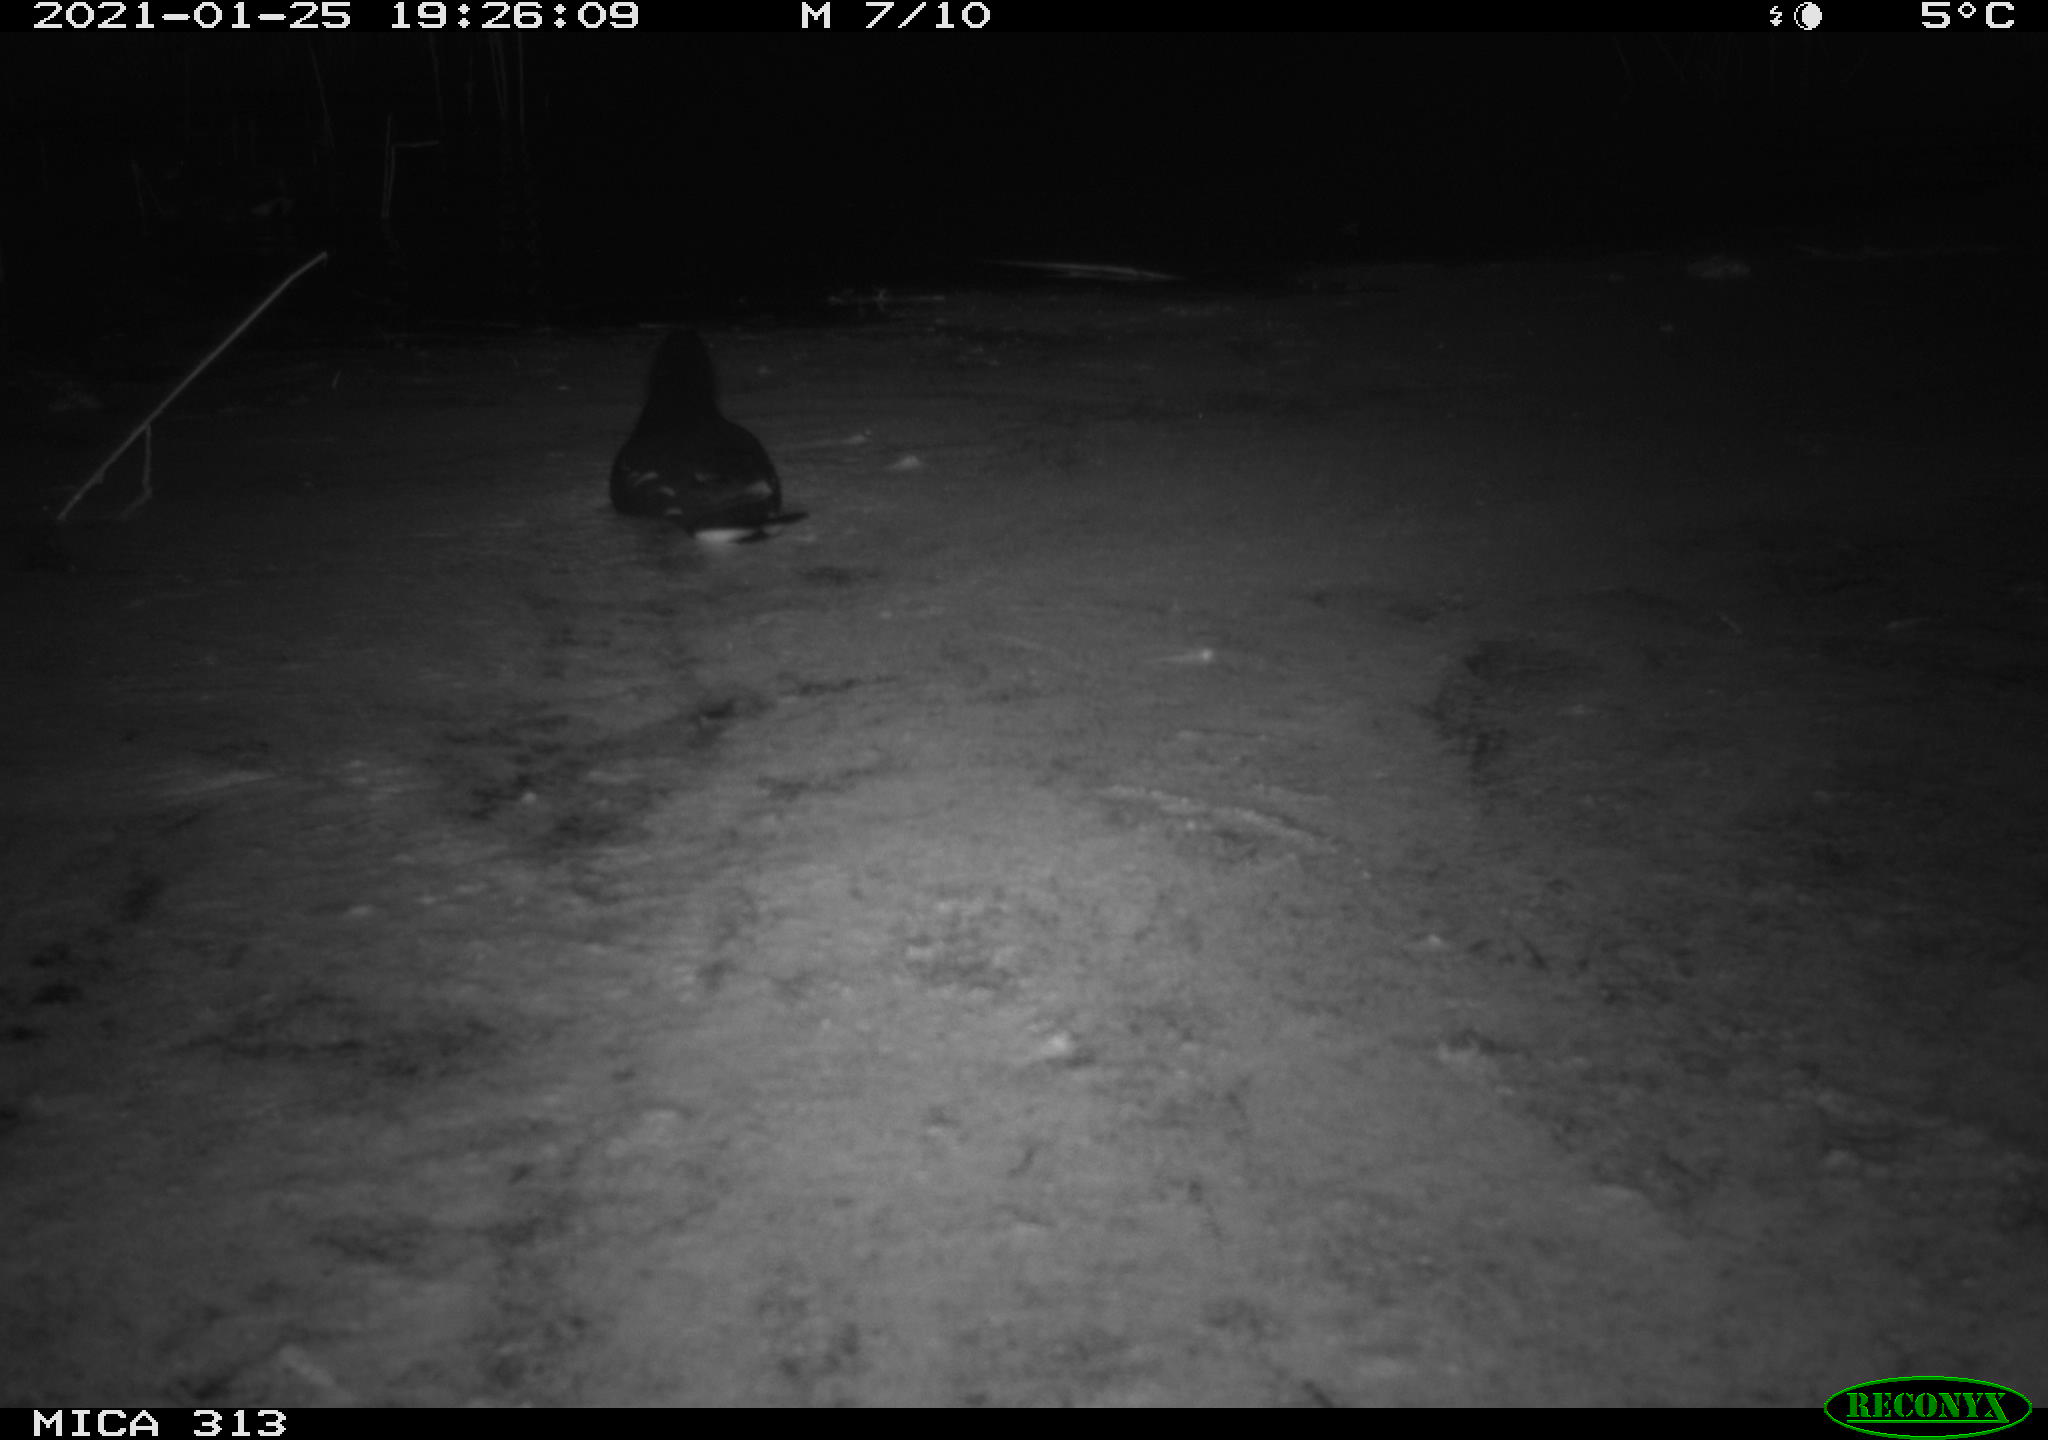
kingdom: Animalia
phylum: Chordata
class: Aves
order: Gruiformes
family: Rallidae
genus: Gallinula
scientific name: Gallinula chloropus
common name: Common moorhen
